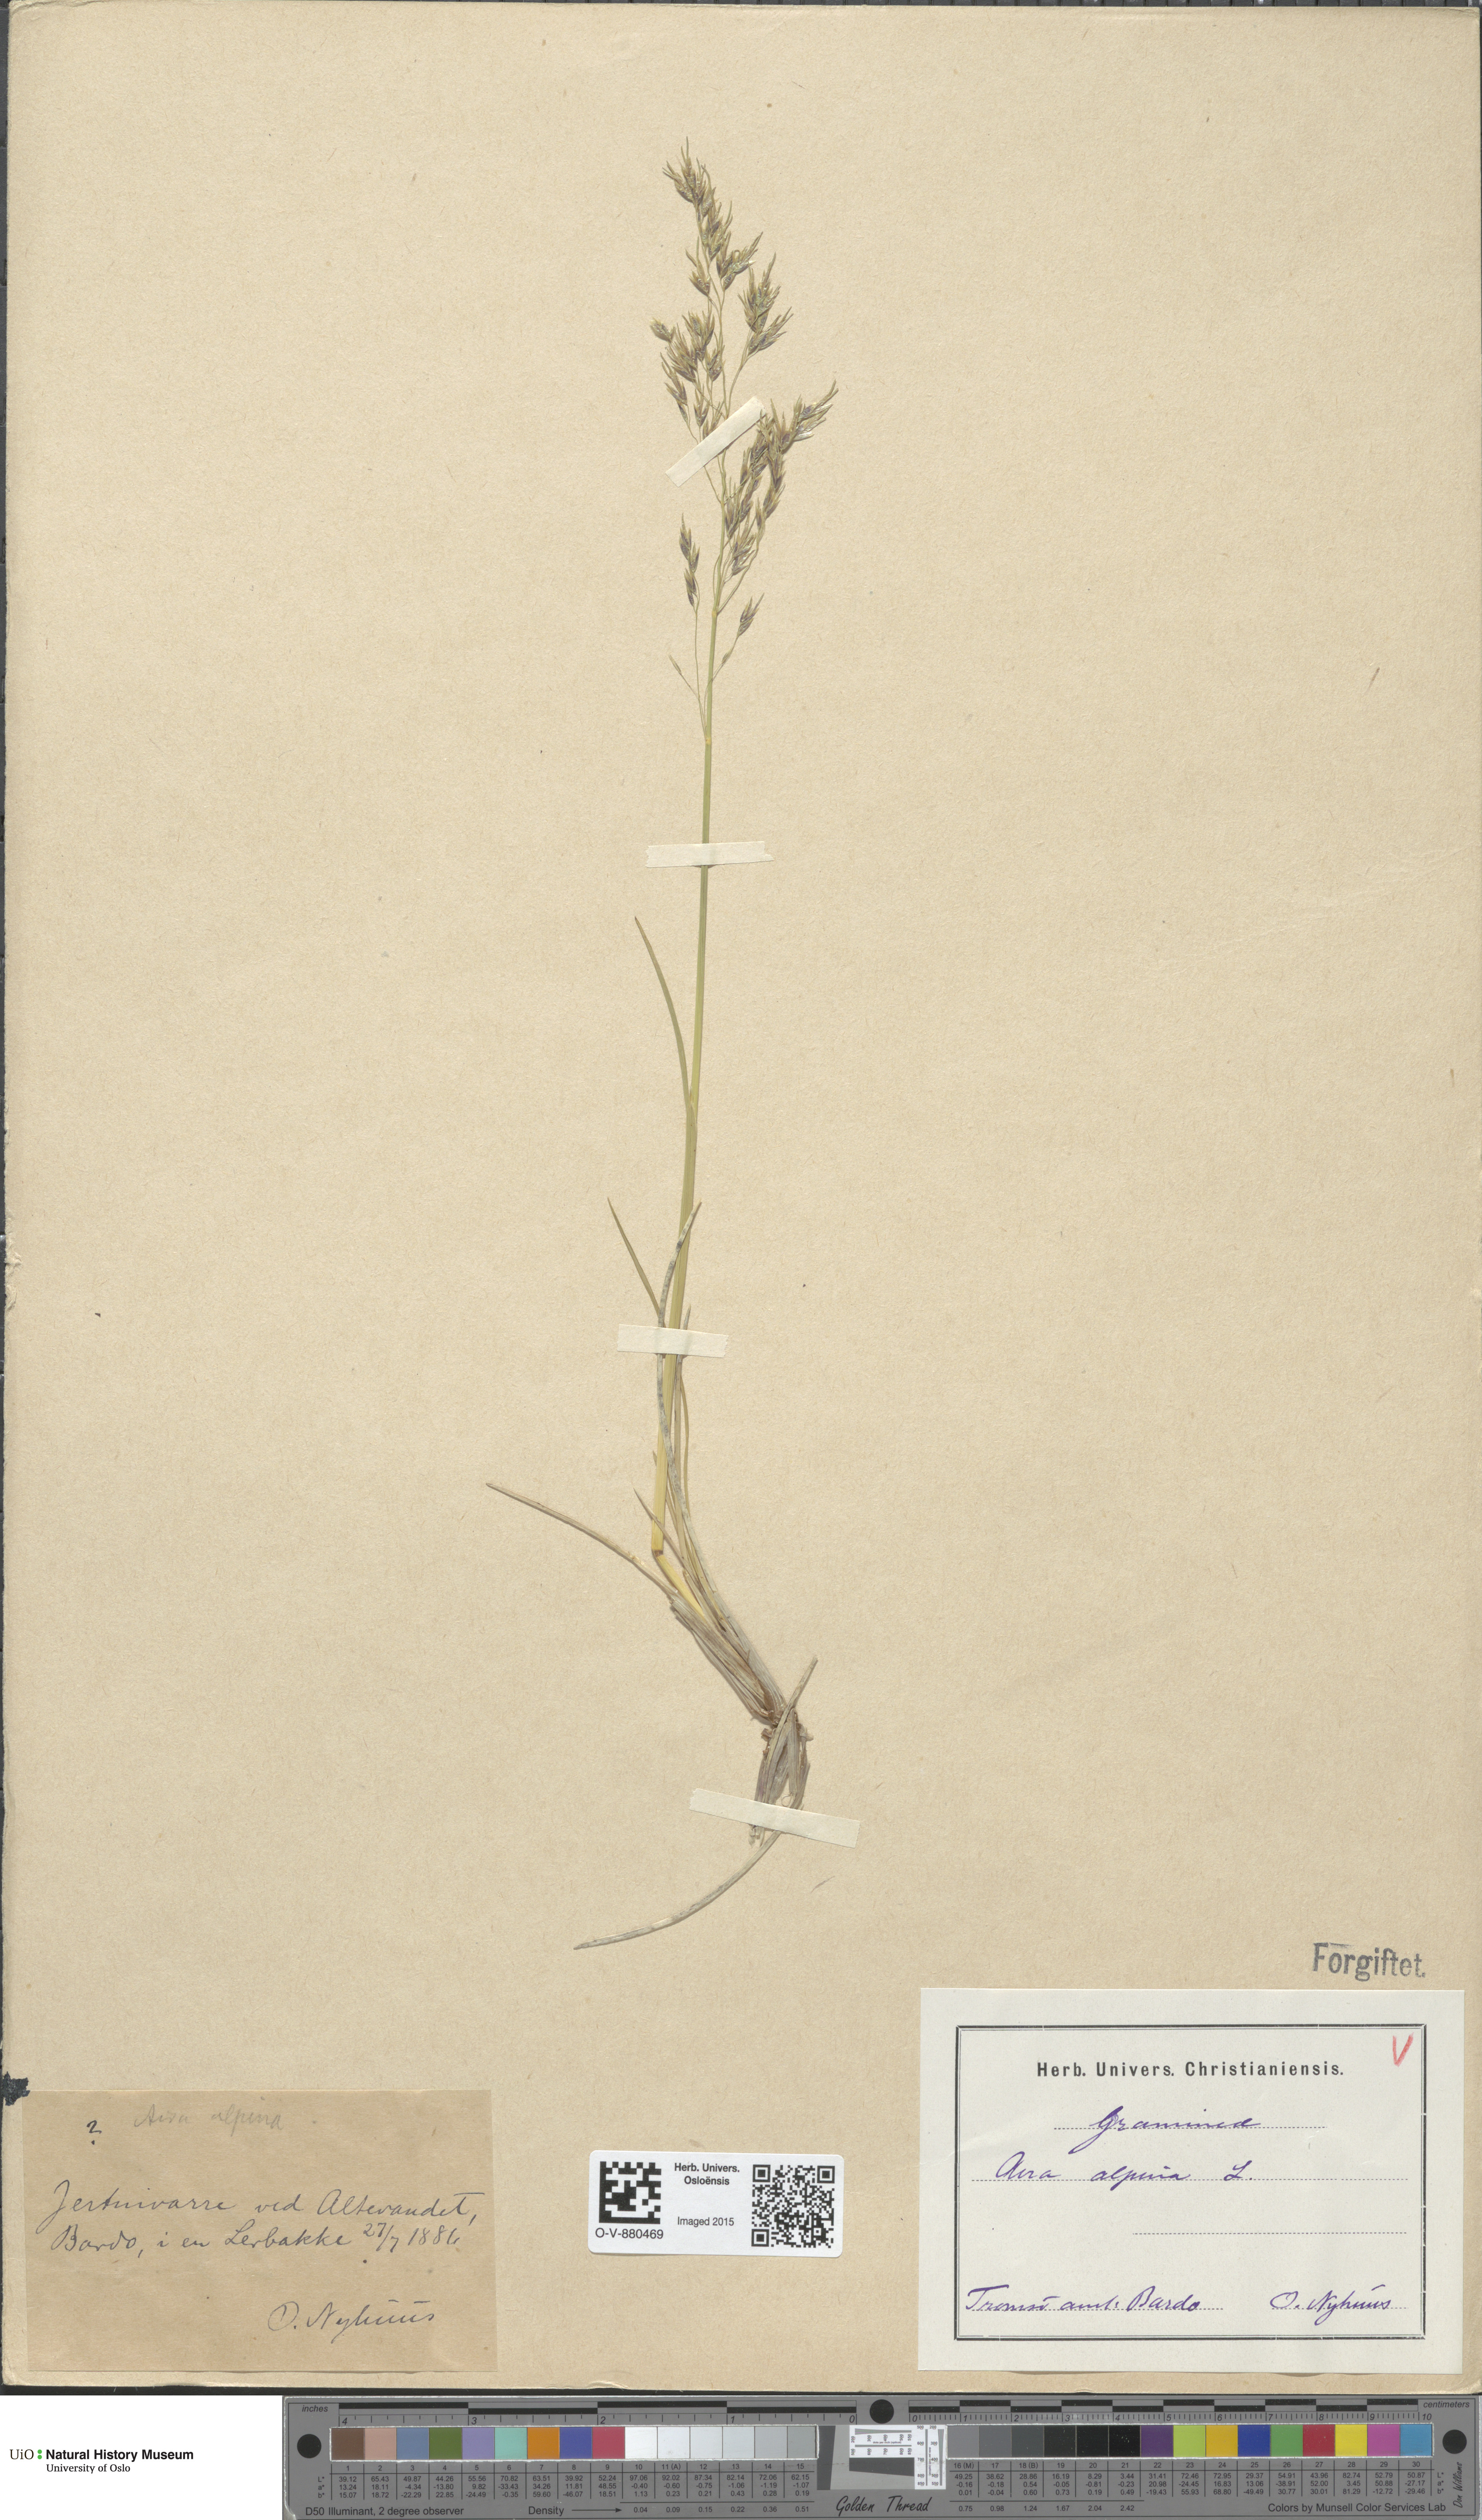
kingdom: Plantae
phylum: Tracheophyta
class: Liliopsida
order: Poales
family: Poaceae
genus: Deschampsia
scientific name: Deschampsia cespitosa
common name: Tufted hair-grass
